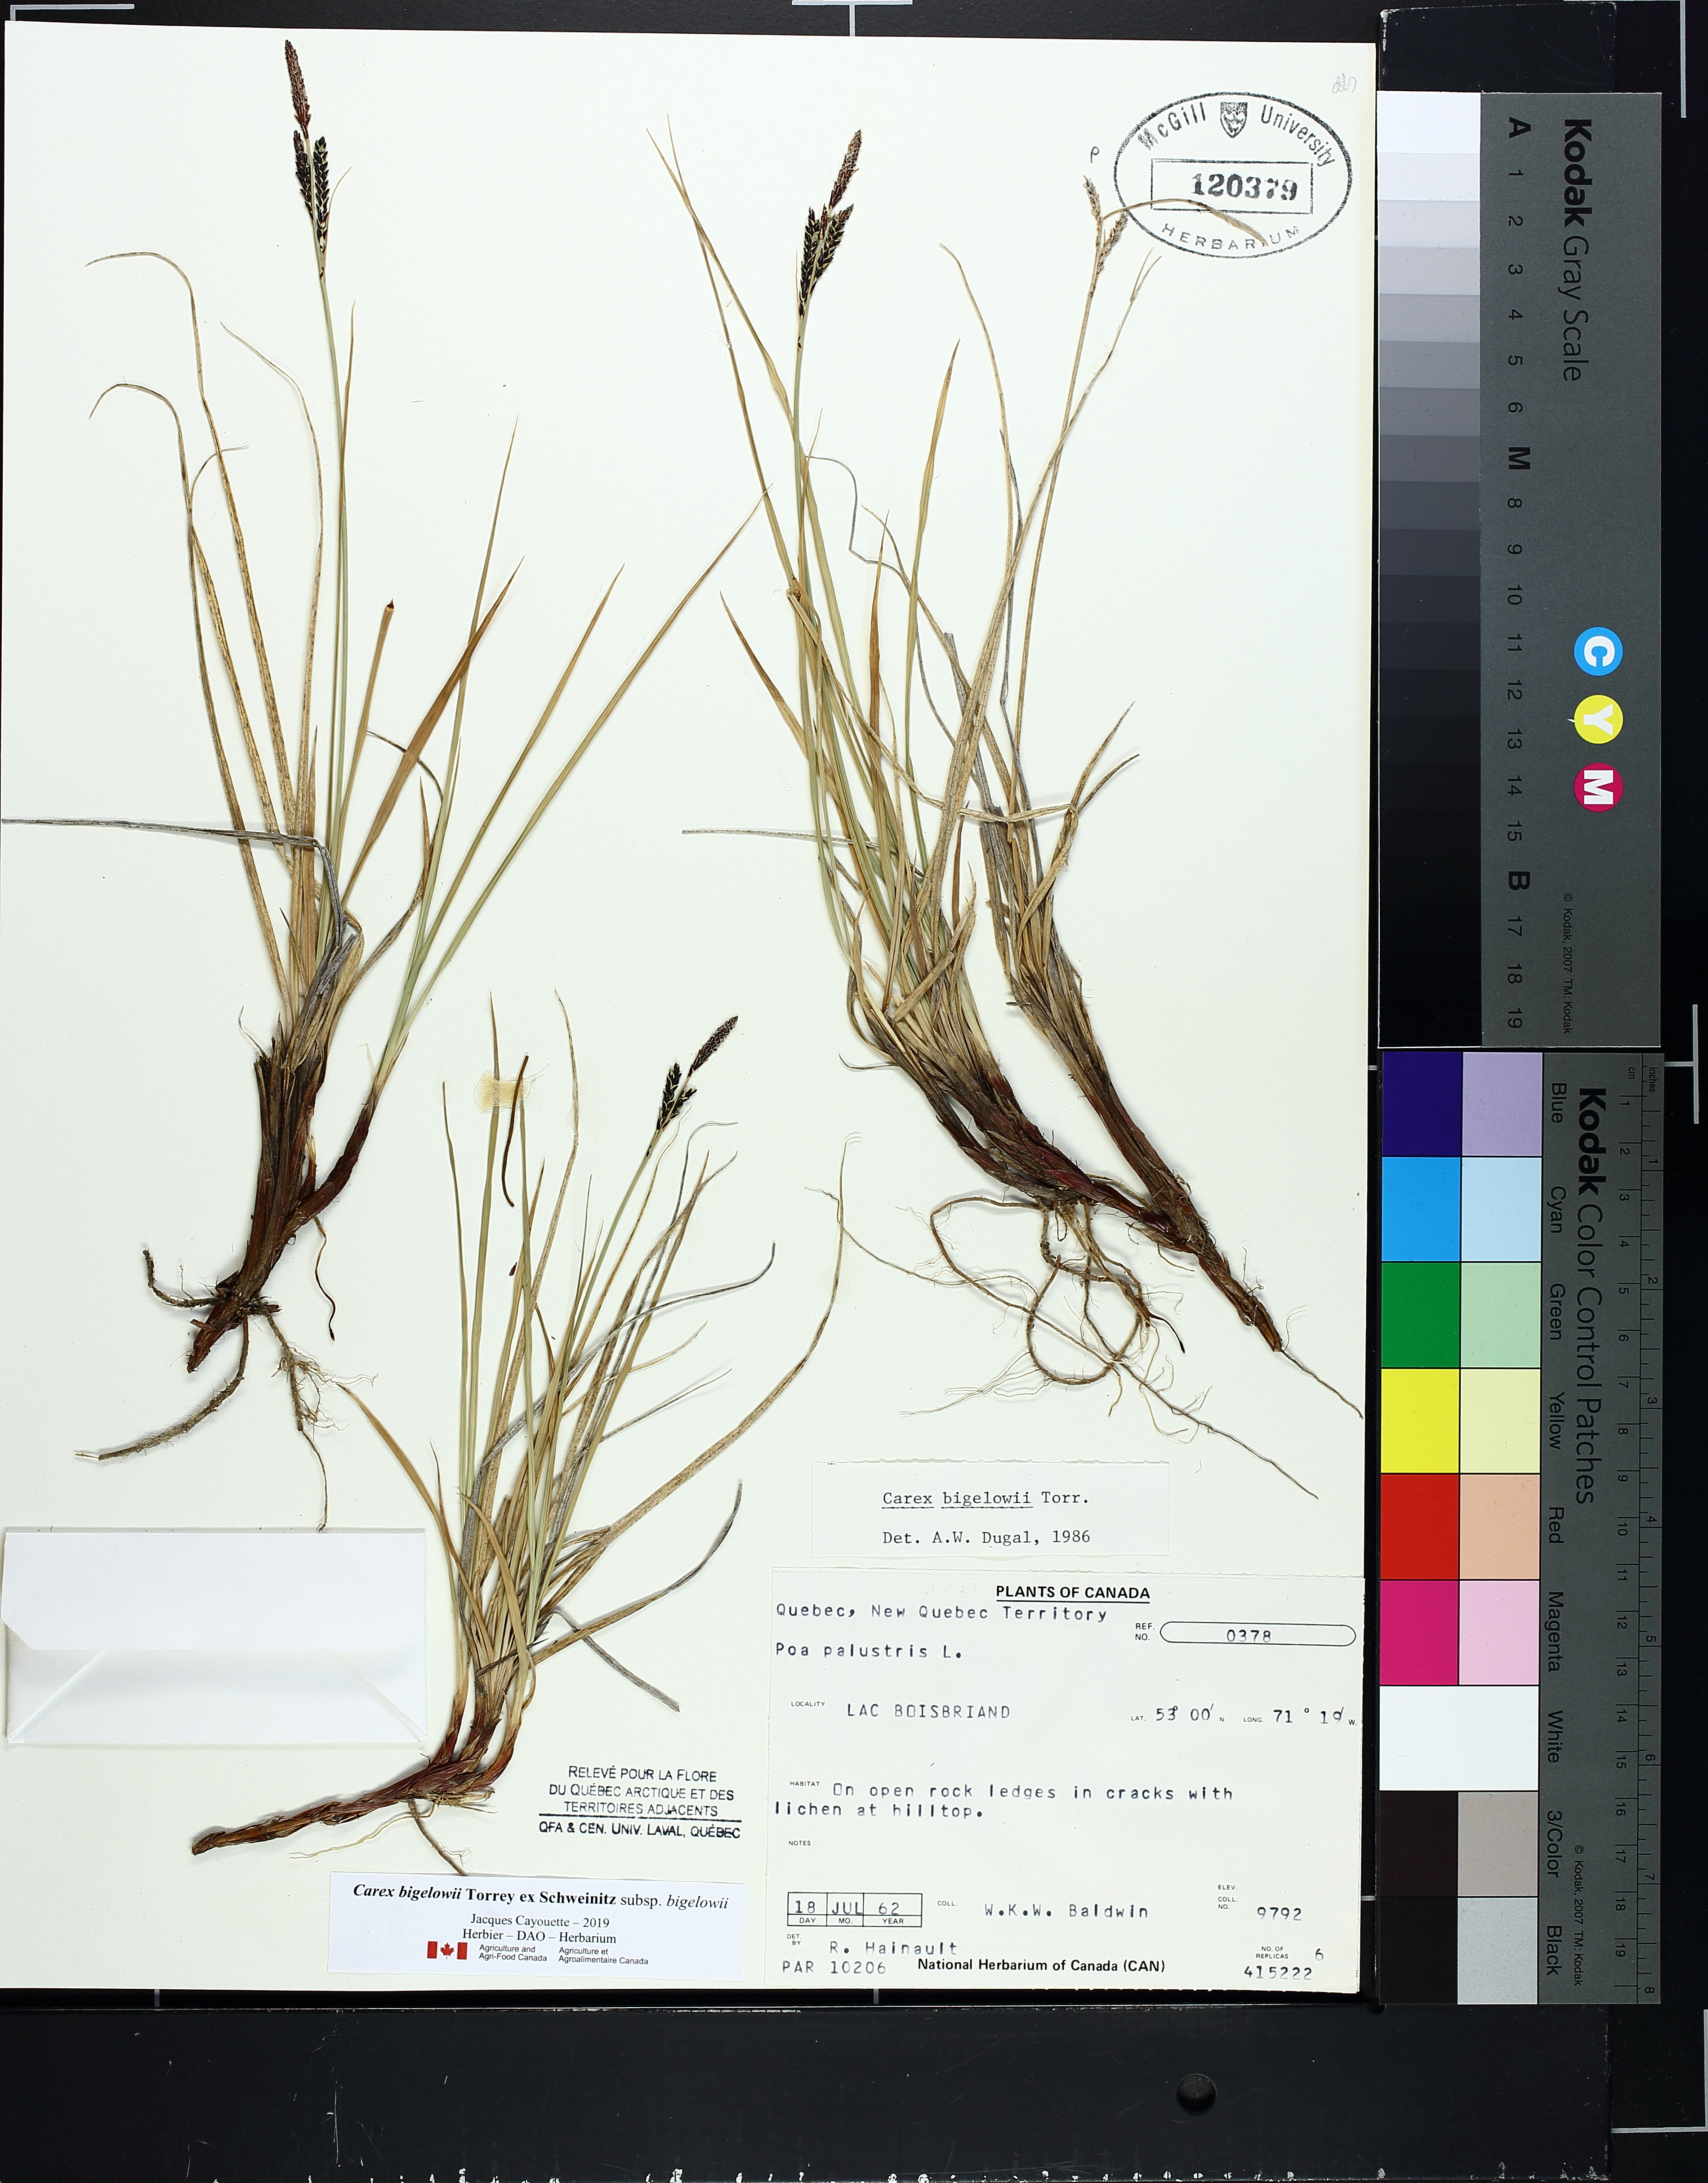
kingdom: Plantae
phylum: Tracheophyta
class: Liliopsida
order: Poales
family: Cyperaceae
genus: Carex
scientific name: Carex bigelowii
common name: Stiff sedge
